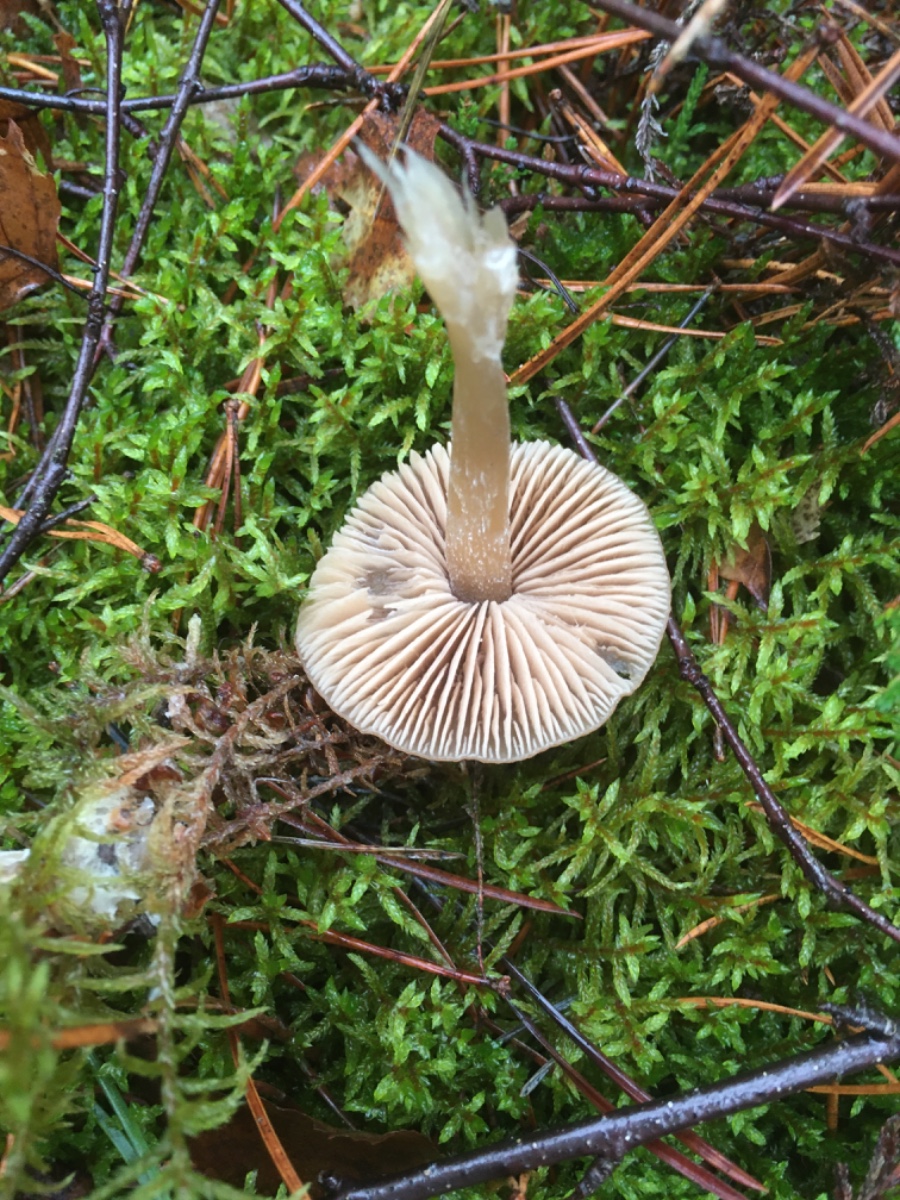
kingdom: Fungi
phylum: Basidiomycota
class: Agaricomycetes
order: Agaricales
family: Entolomataceae
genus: Entoloma
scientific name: Entoloma
